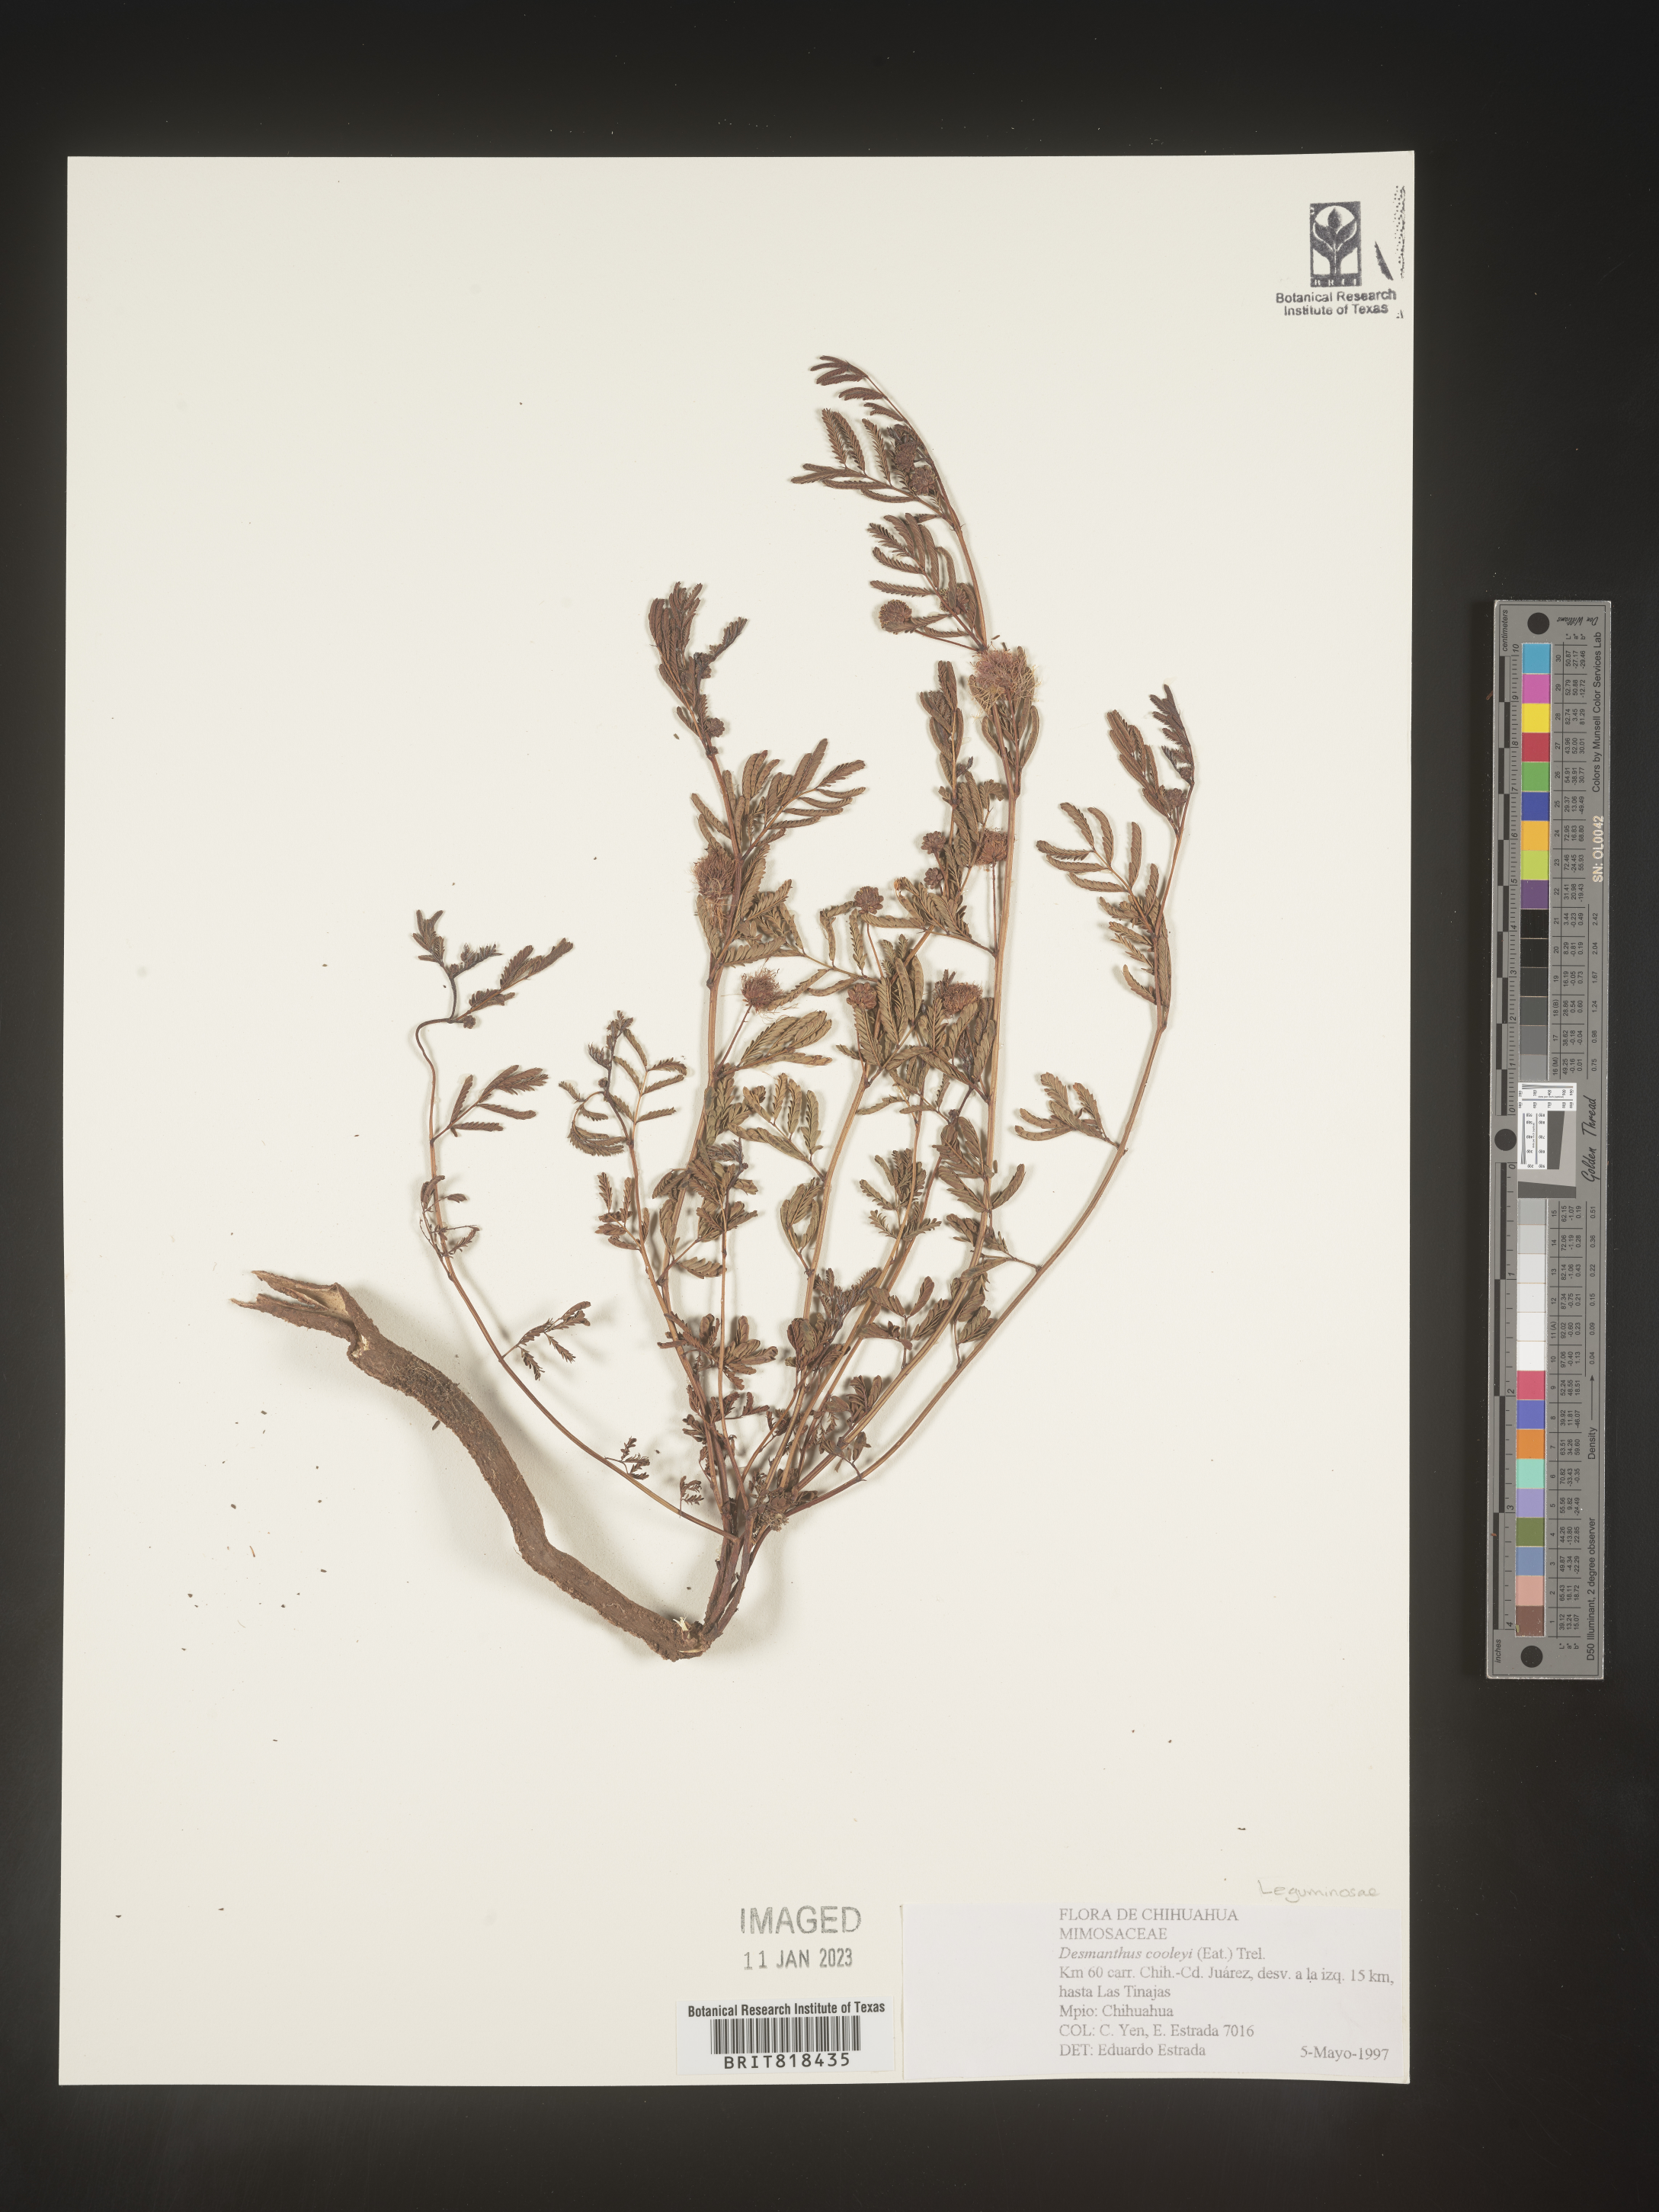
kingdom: Plantae
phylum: Tracheophyta
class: Magnoliopsida
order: Fabales
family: Fabaceae
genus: Desmanthus
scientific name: Desmanthus
